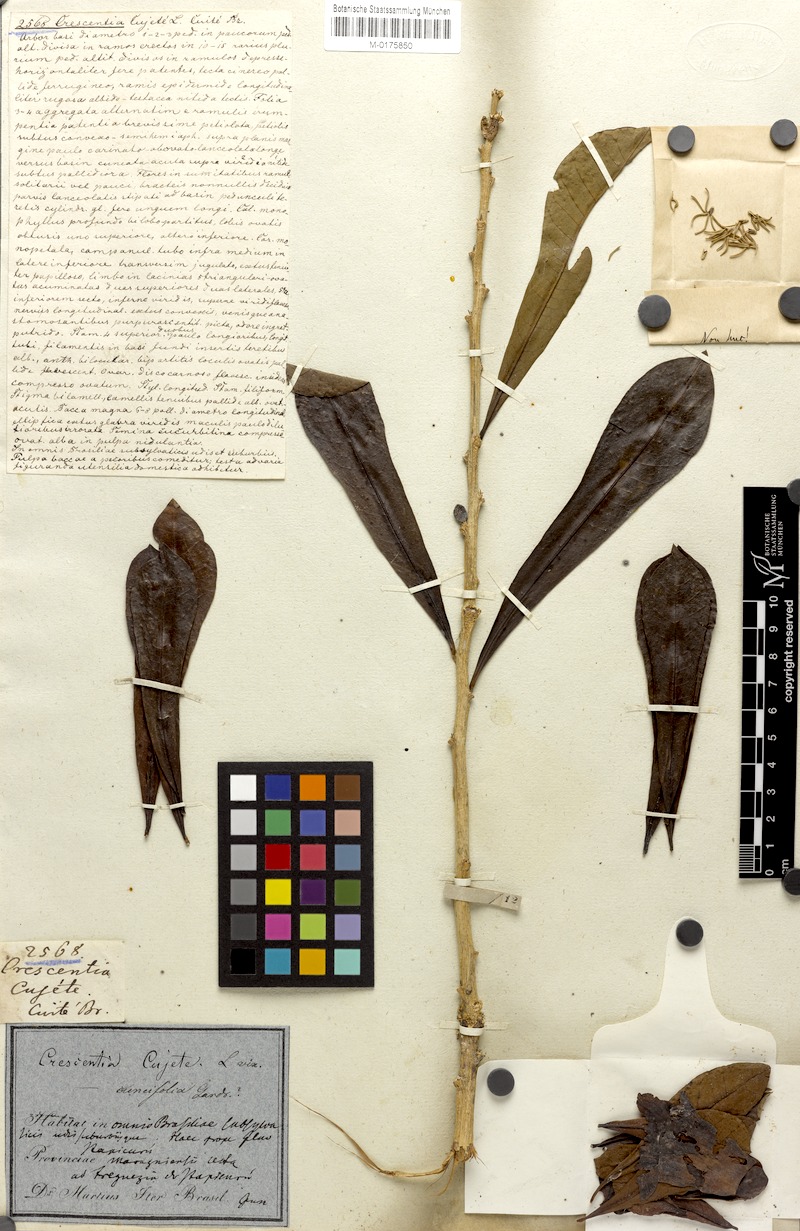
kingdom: Plantae
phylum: Tracheophyta
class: Magnoliopsida
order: Lamiales
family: Bignoniaceae
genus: Crescentia
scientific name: Crescentia cujete
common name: Calabash
